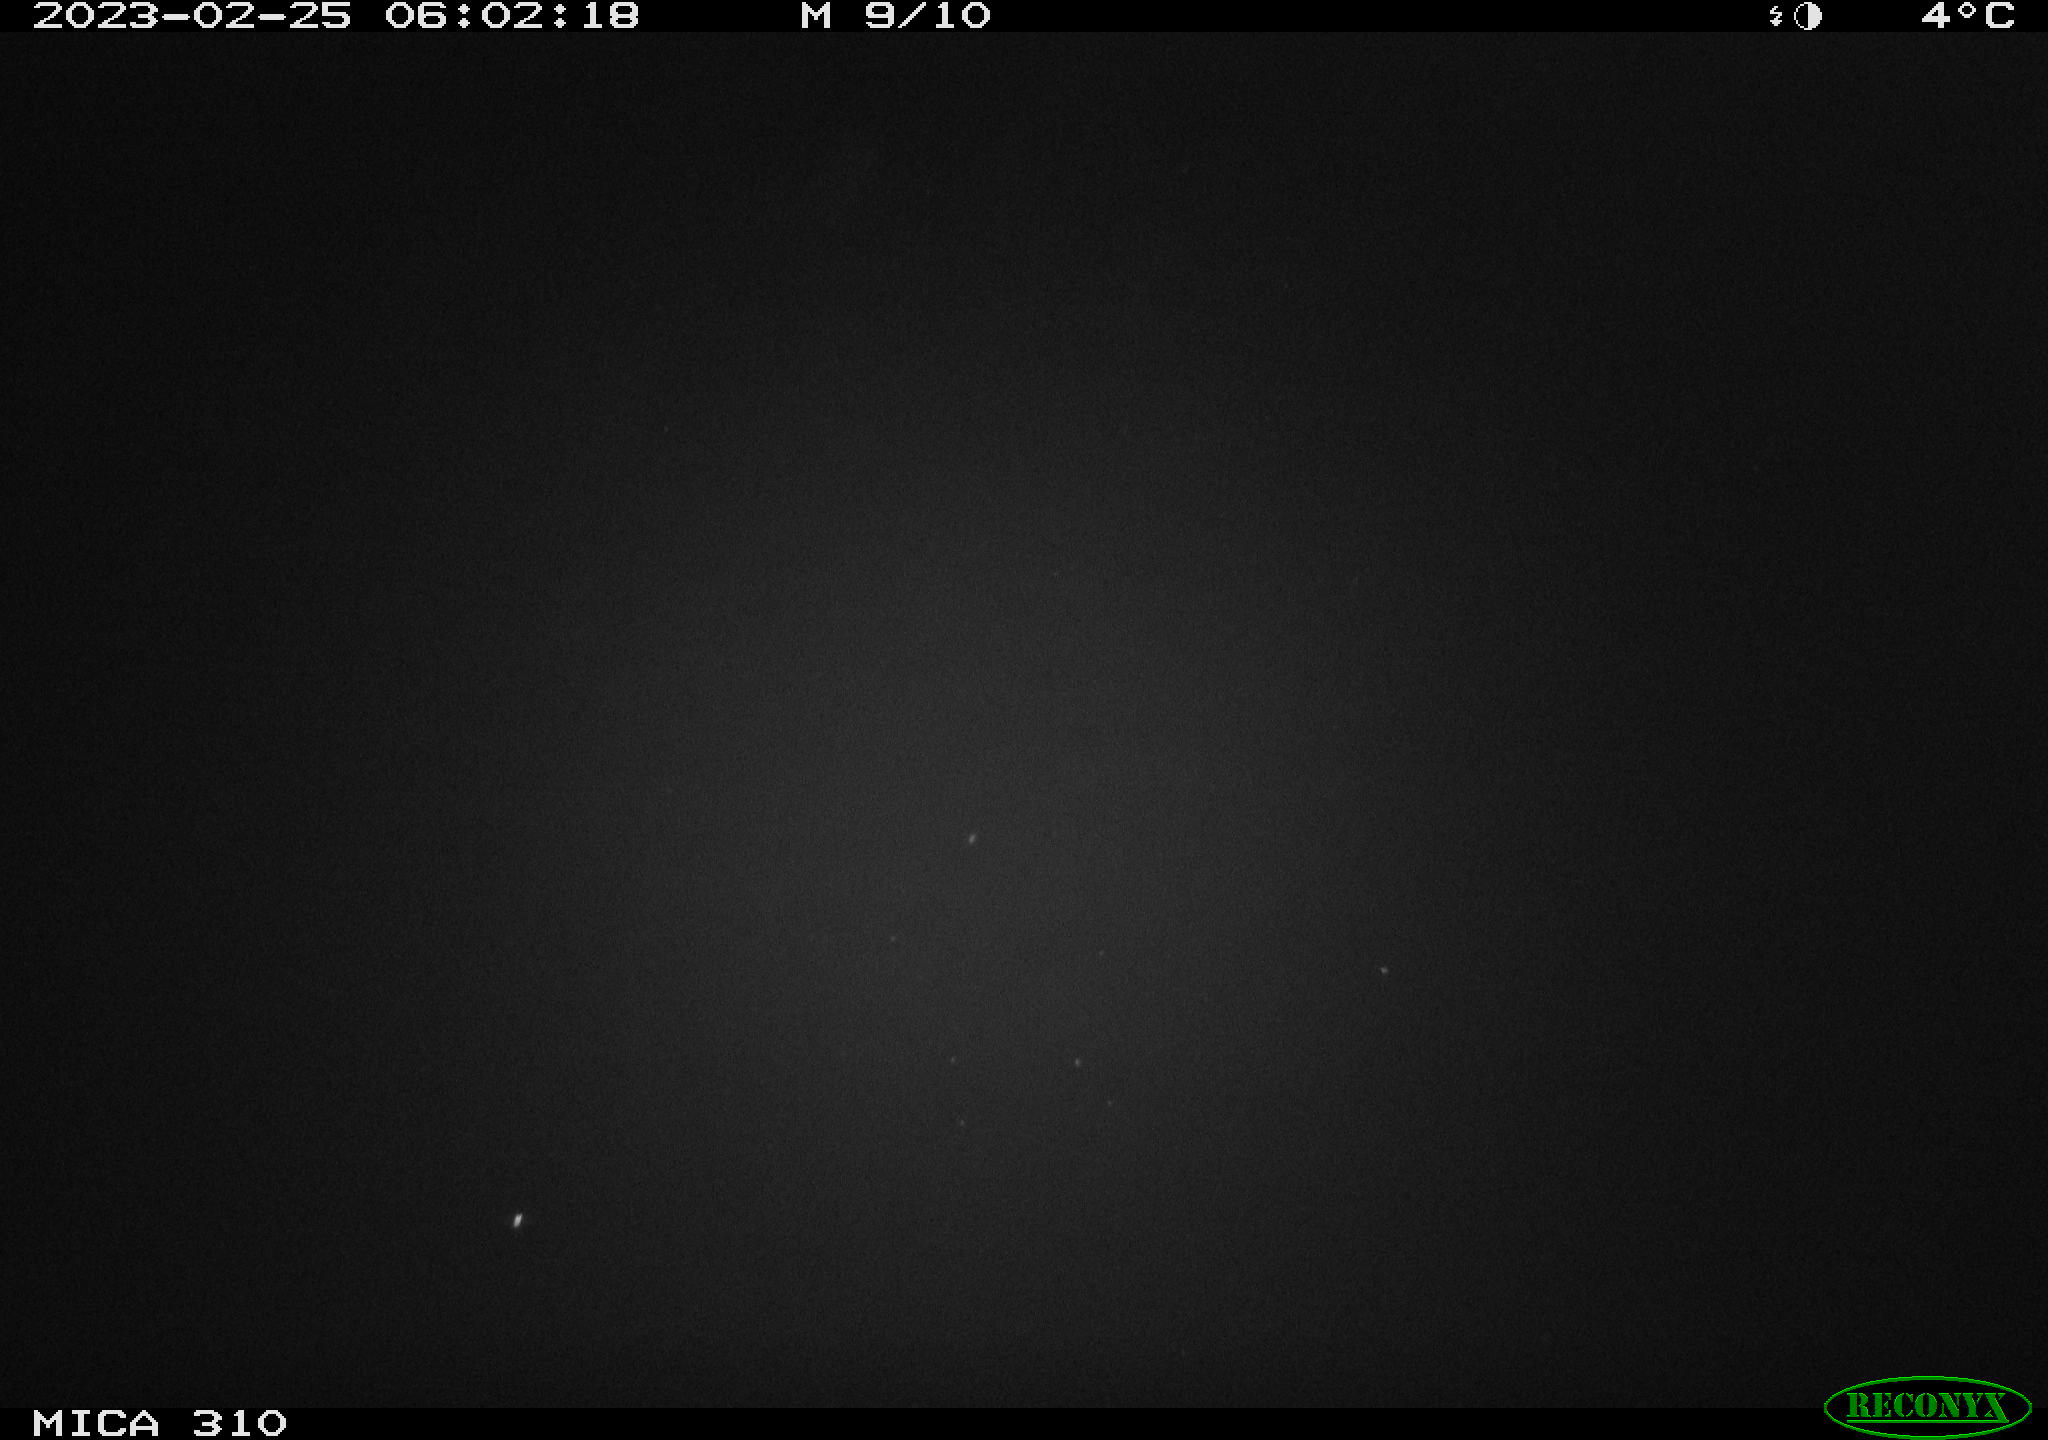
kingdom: Animalia
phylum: Chordata
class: Aves
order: Anseriformes
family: Anatidae
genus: Anas
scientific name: Anas
